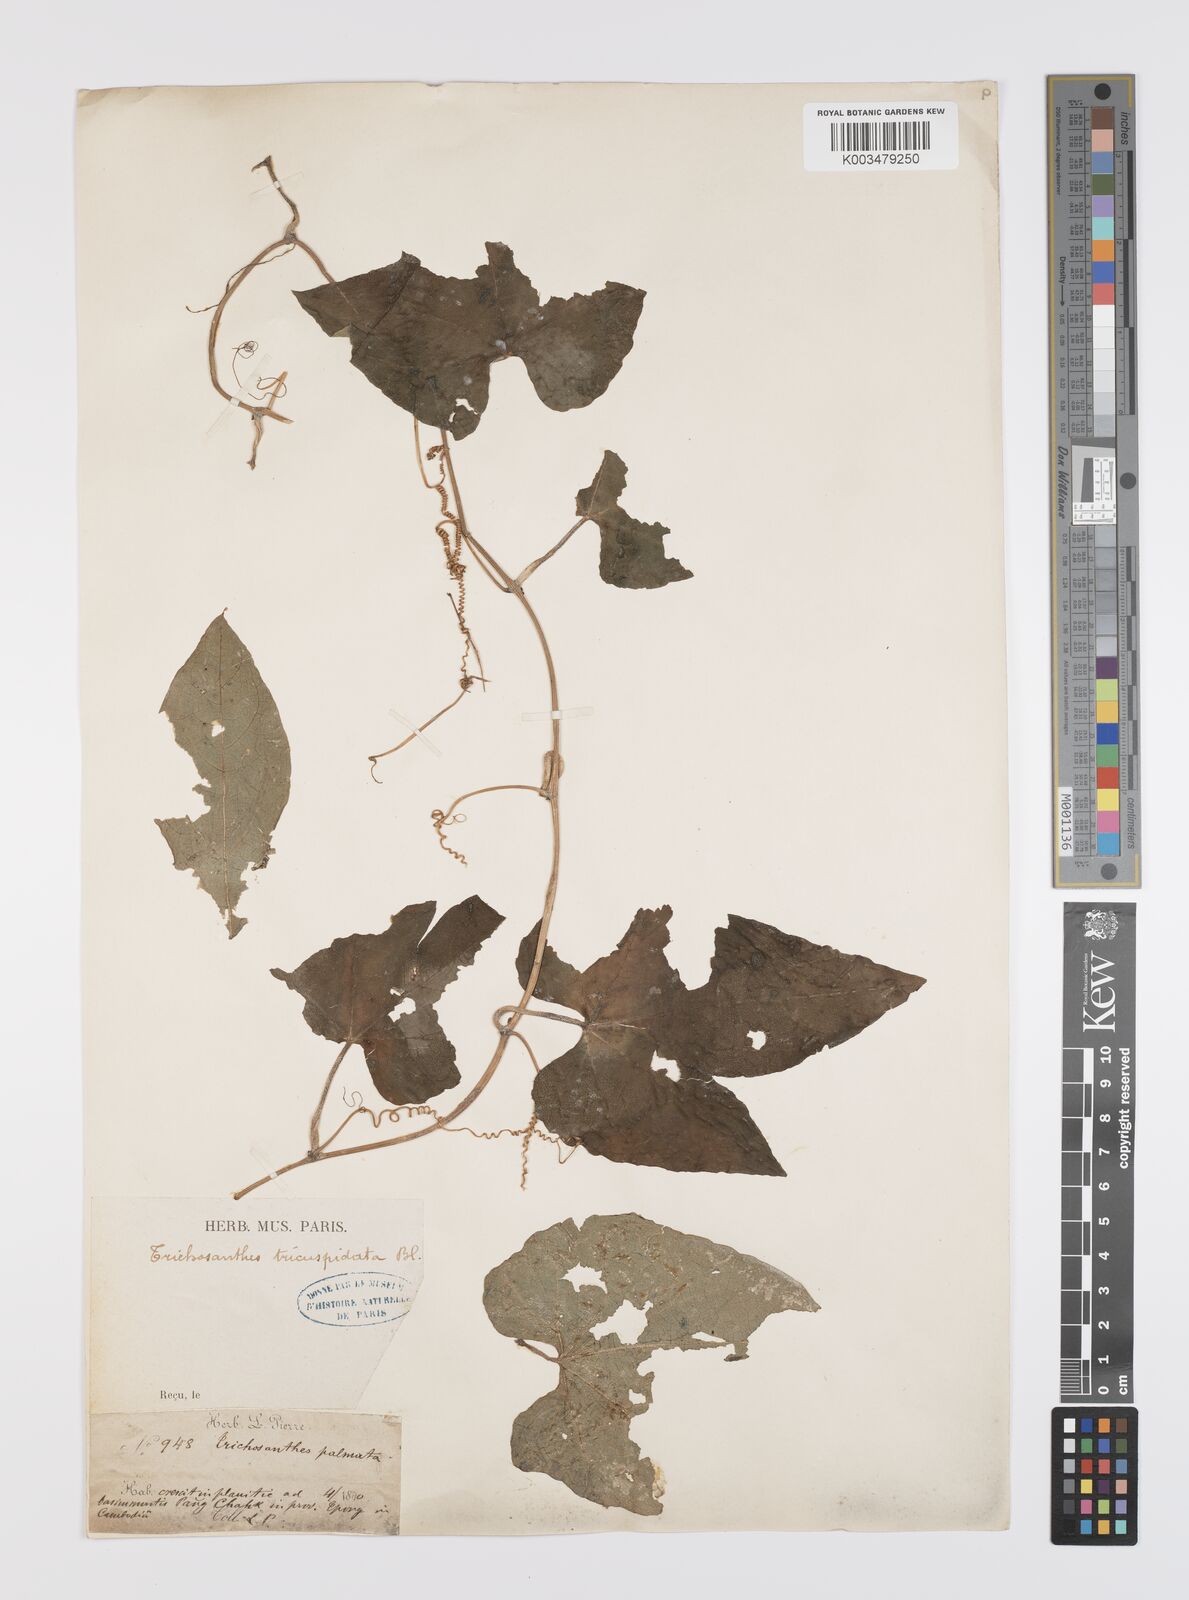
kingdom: Plantae
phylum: Tracheophyta
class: Magnoliopsida
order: Cucurbitales
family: Cucurbitaceae
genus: Trichosanthes
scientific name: Trichosanthes tricuspidata
